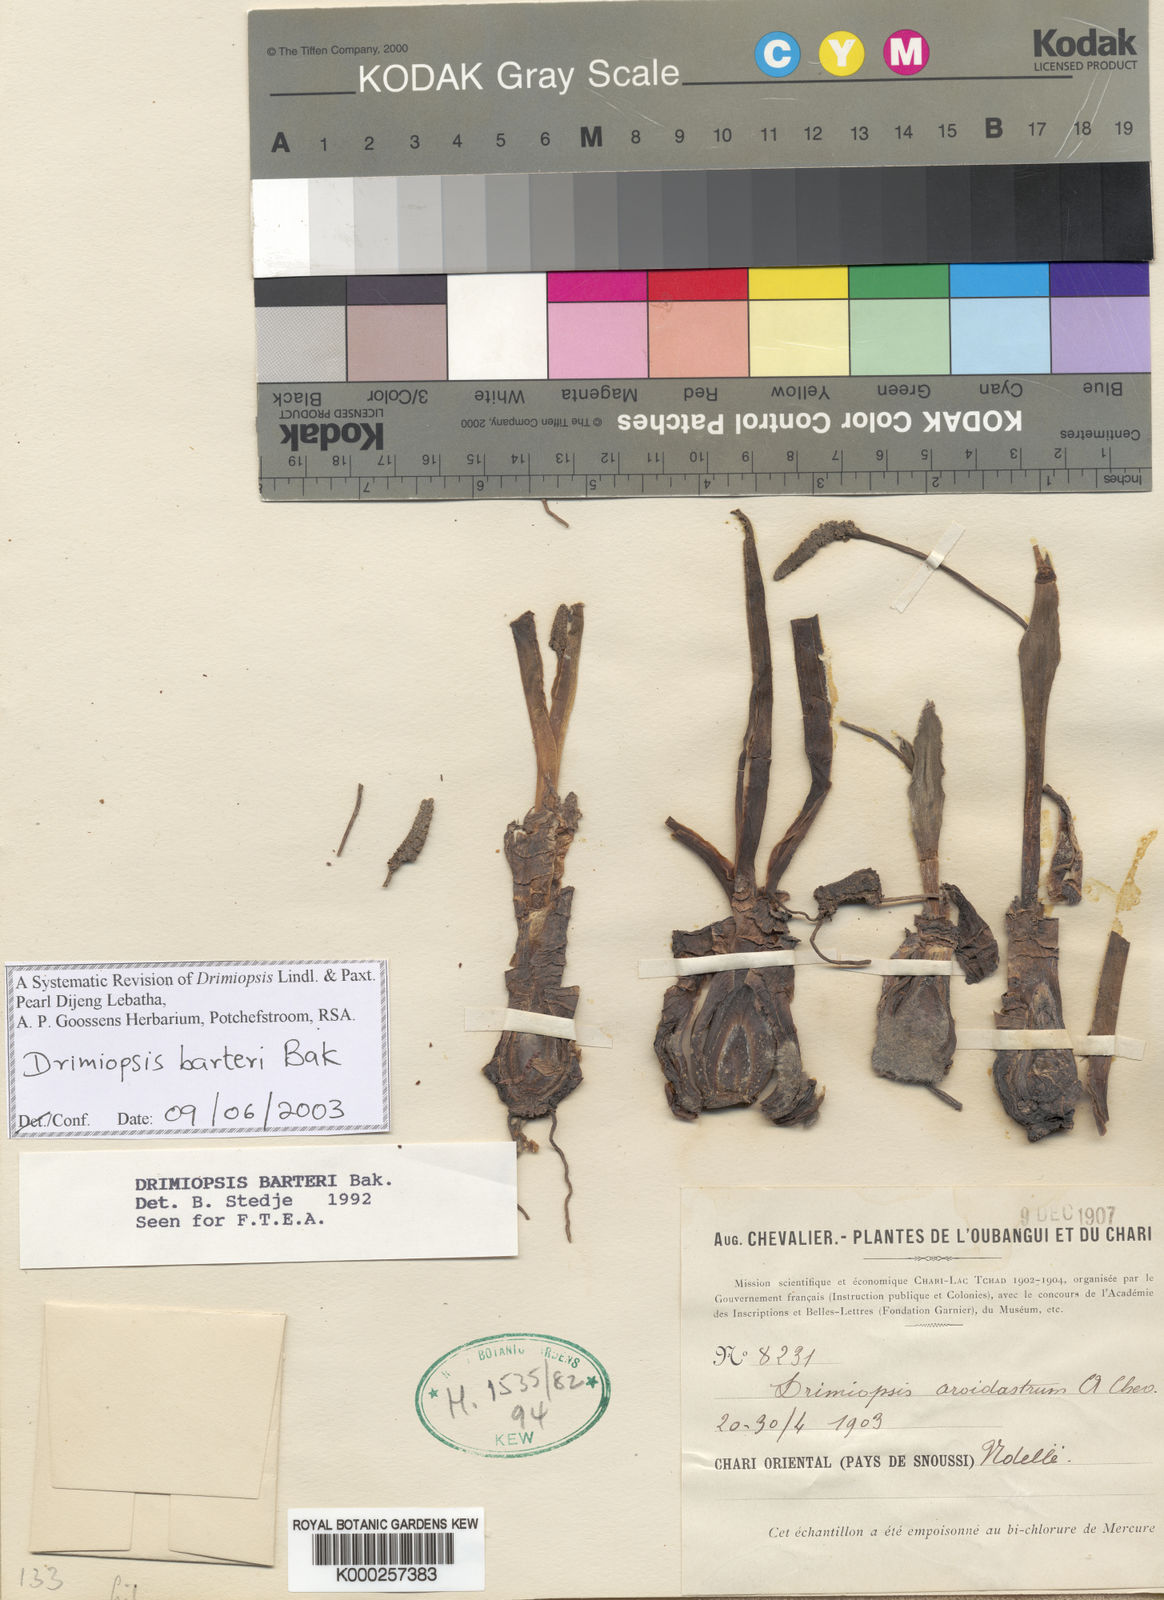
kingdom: Plantae
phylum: Tracheophyta
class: Liliopsida
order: Asparagales
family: Asparagaceae
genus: Drimiopsis
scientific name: Drimiopsis barteri
